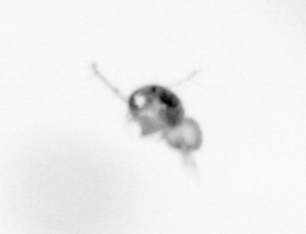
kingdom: Animalia
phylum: Arthropoda
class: Copepoda
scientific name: Copepoda
